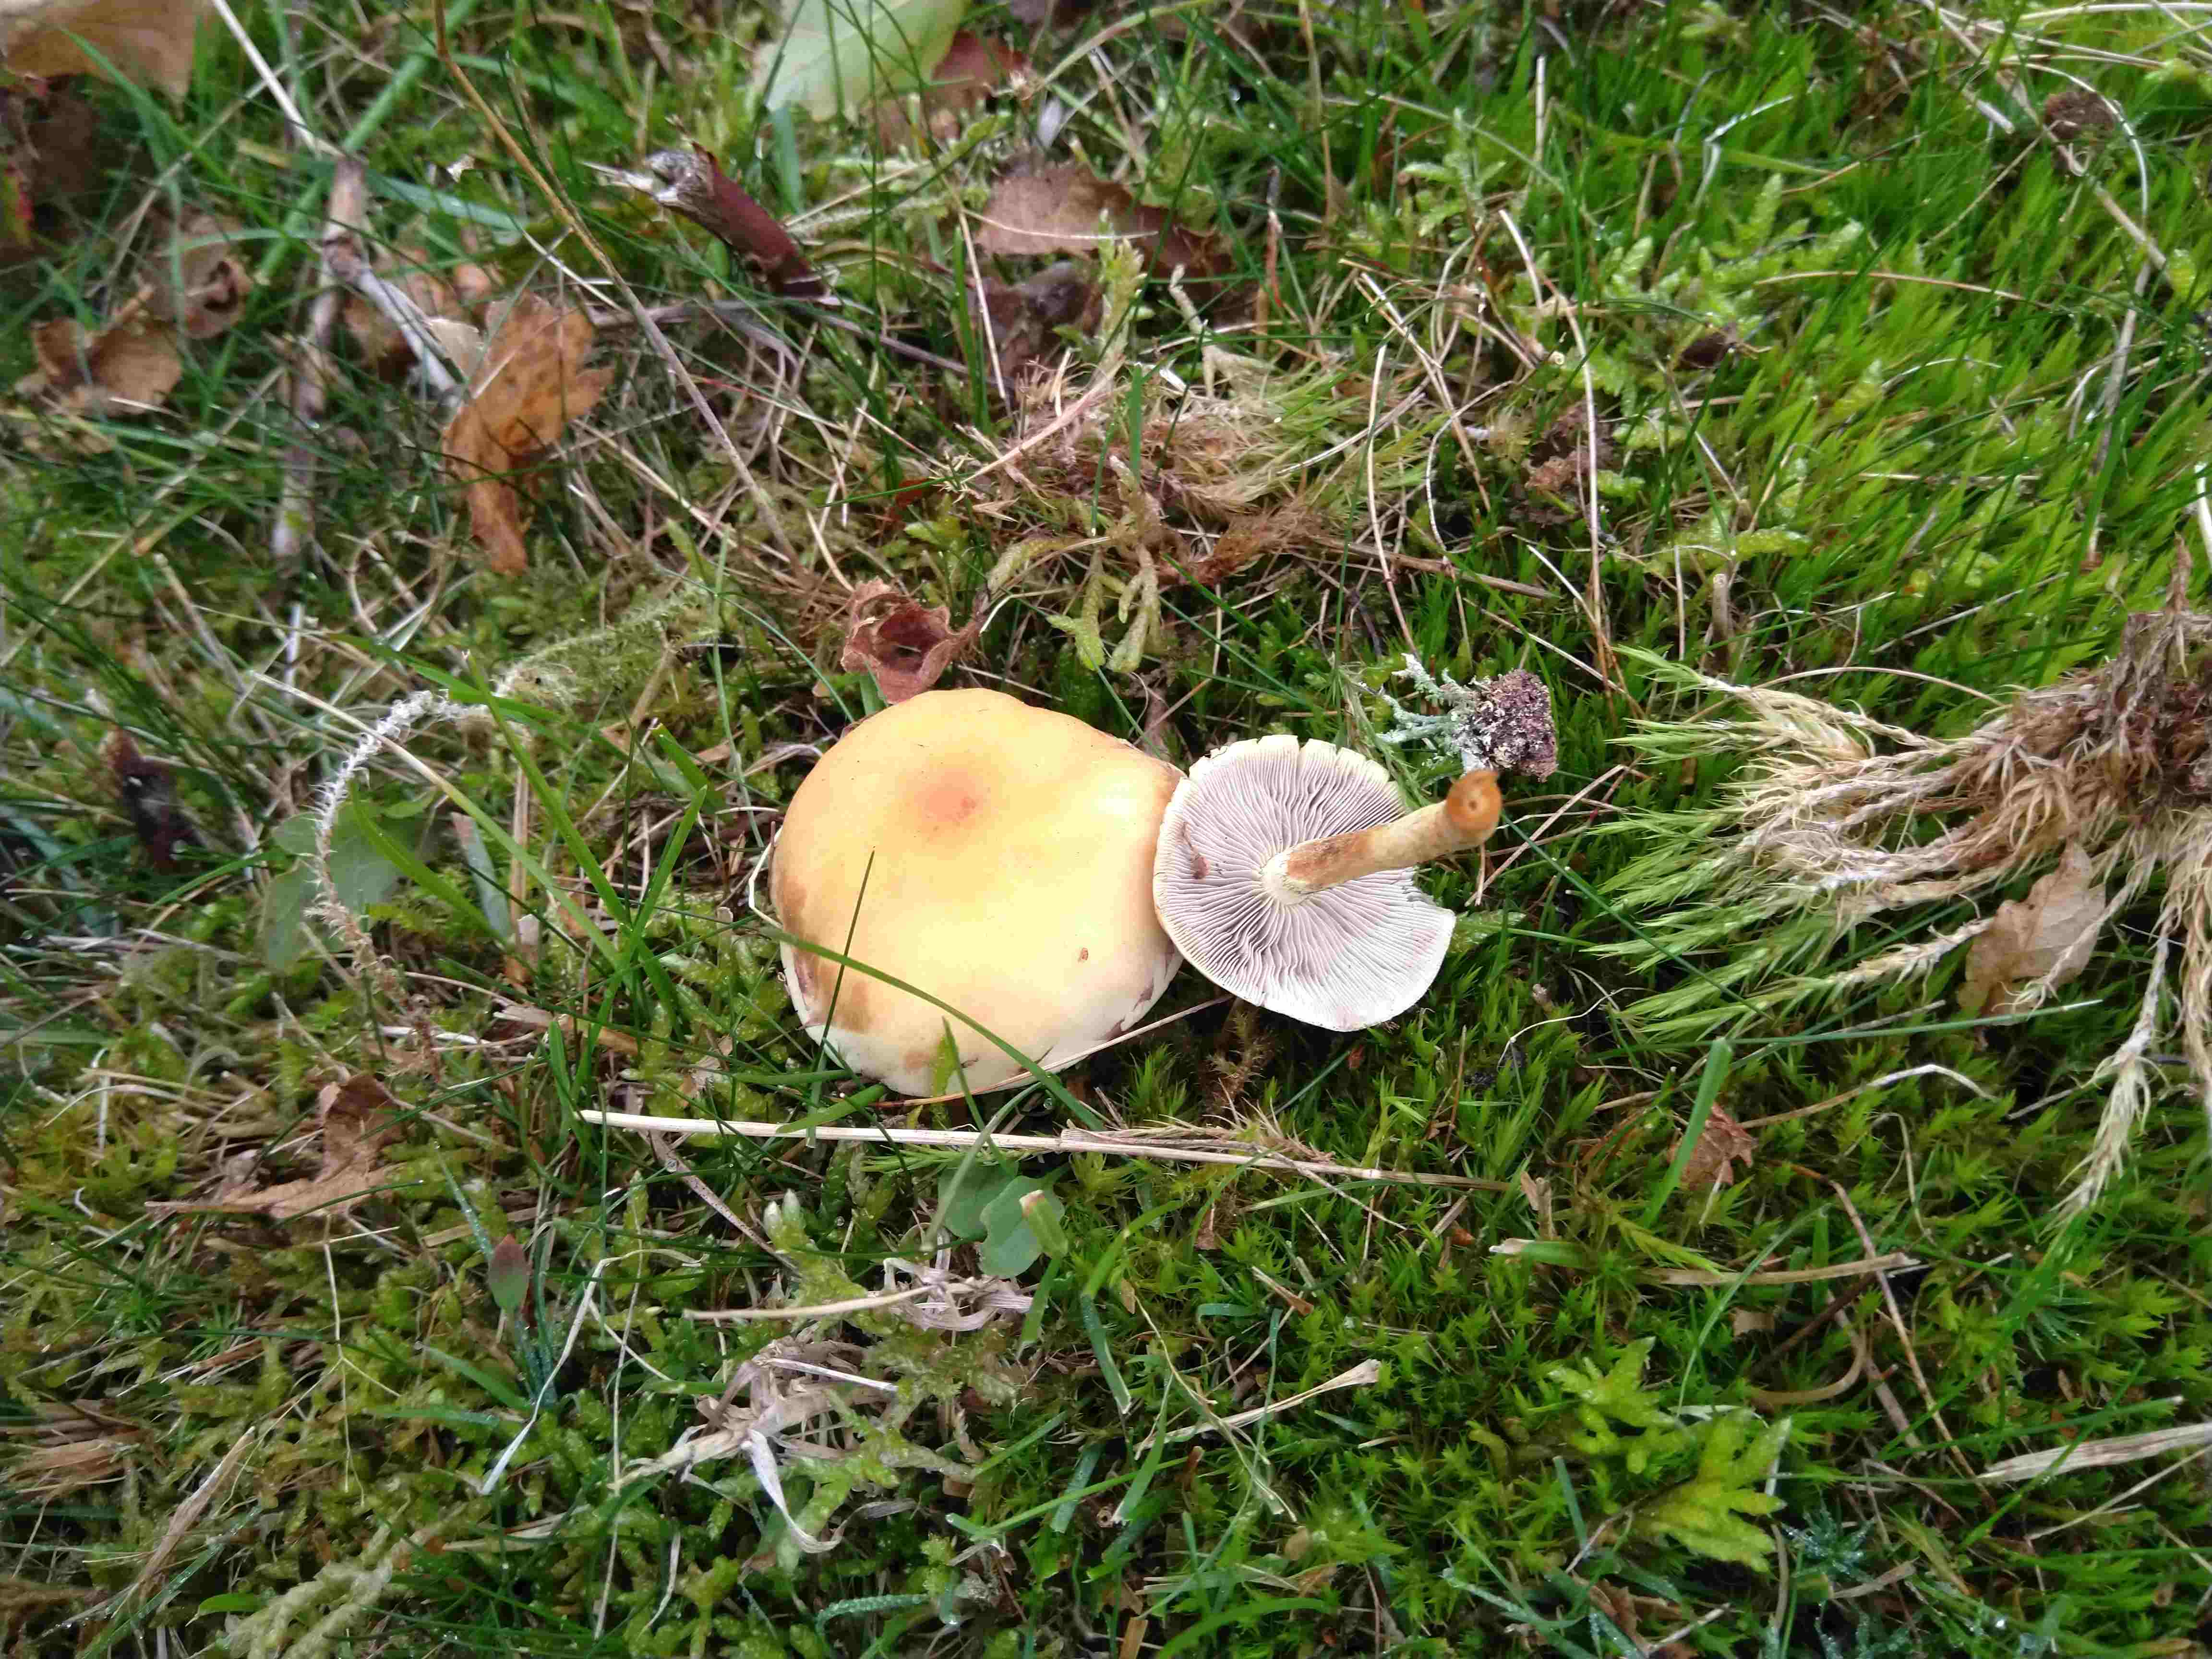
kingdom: Fungi
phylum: Basidiomycota
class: Agaricomycetes
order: Agaricales
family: Strophariaceae
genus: Hypholoma
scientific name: Hypholoma capnoides
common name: gran-svovlhat
